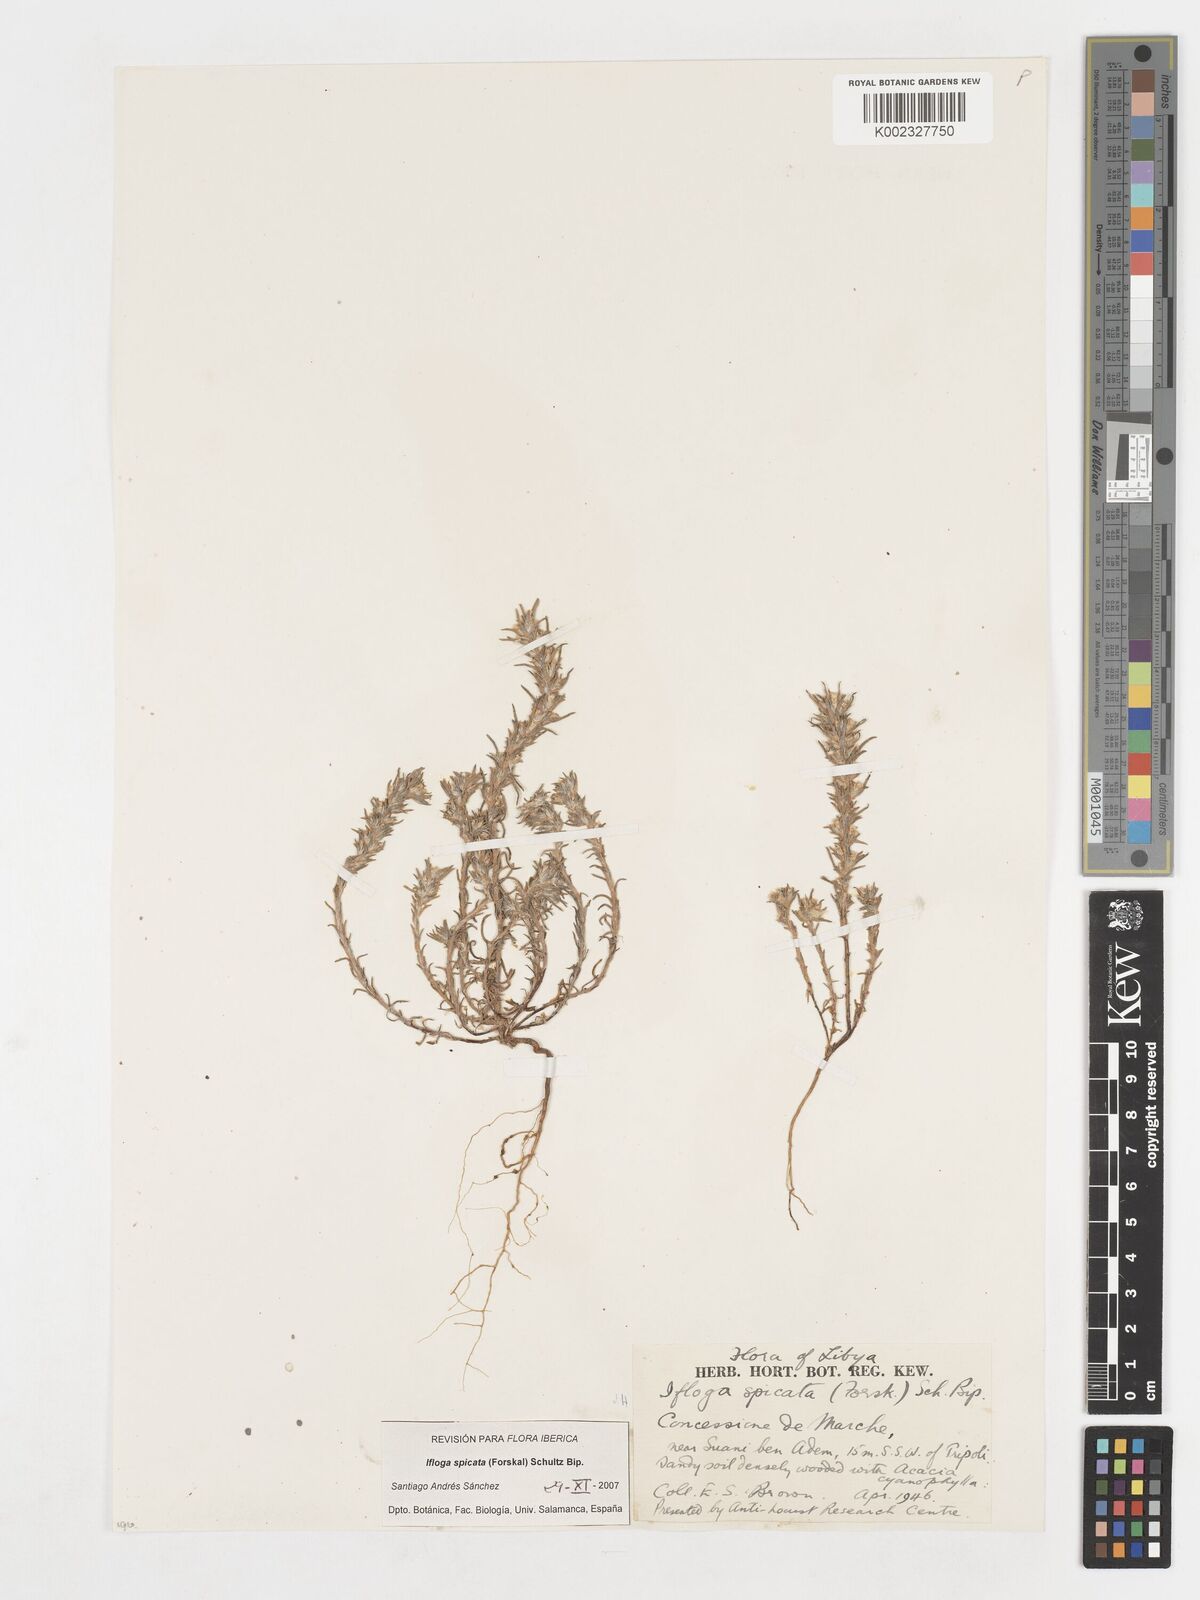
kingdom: Plantae
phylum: Tracheophyta
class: Magnoliopsida
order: Asterales
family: Asteraceae
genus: Ifloga
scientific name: Ifloga spicata
